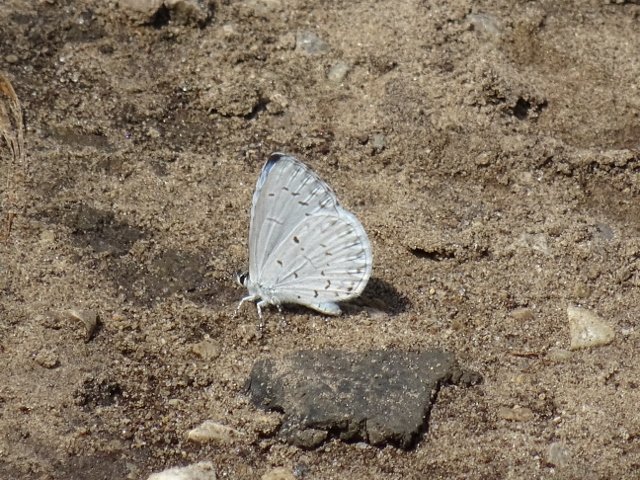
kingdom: Animalia
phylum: Arthropoda
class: Insecta
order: Lepidoptera
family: Lycaenidae
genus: Celastrina
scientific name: Celastrina
